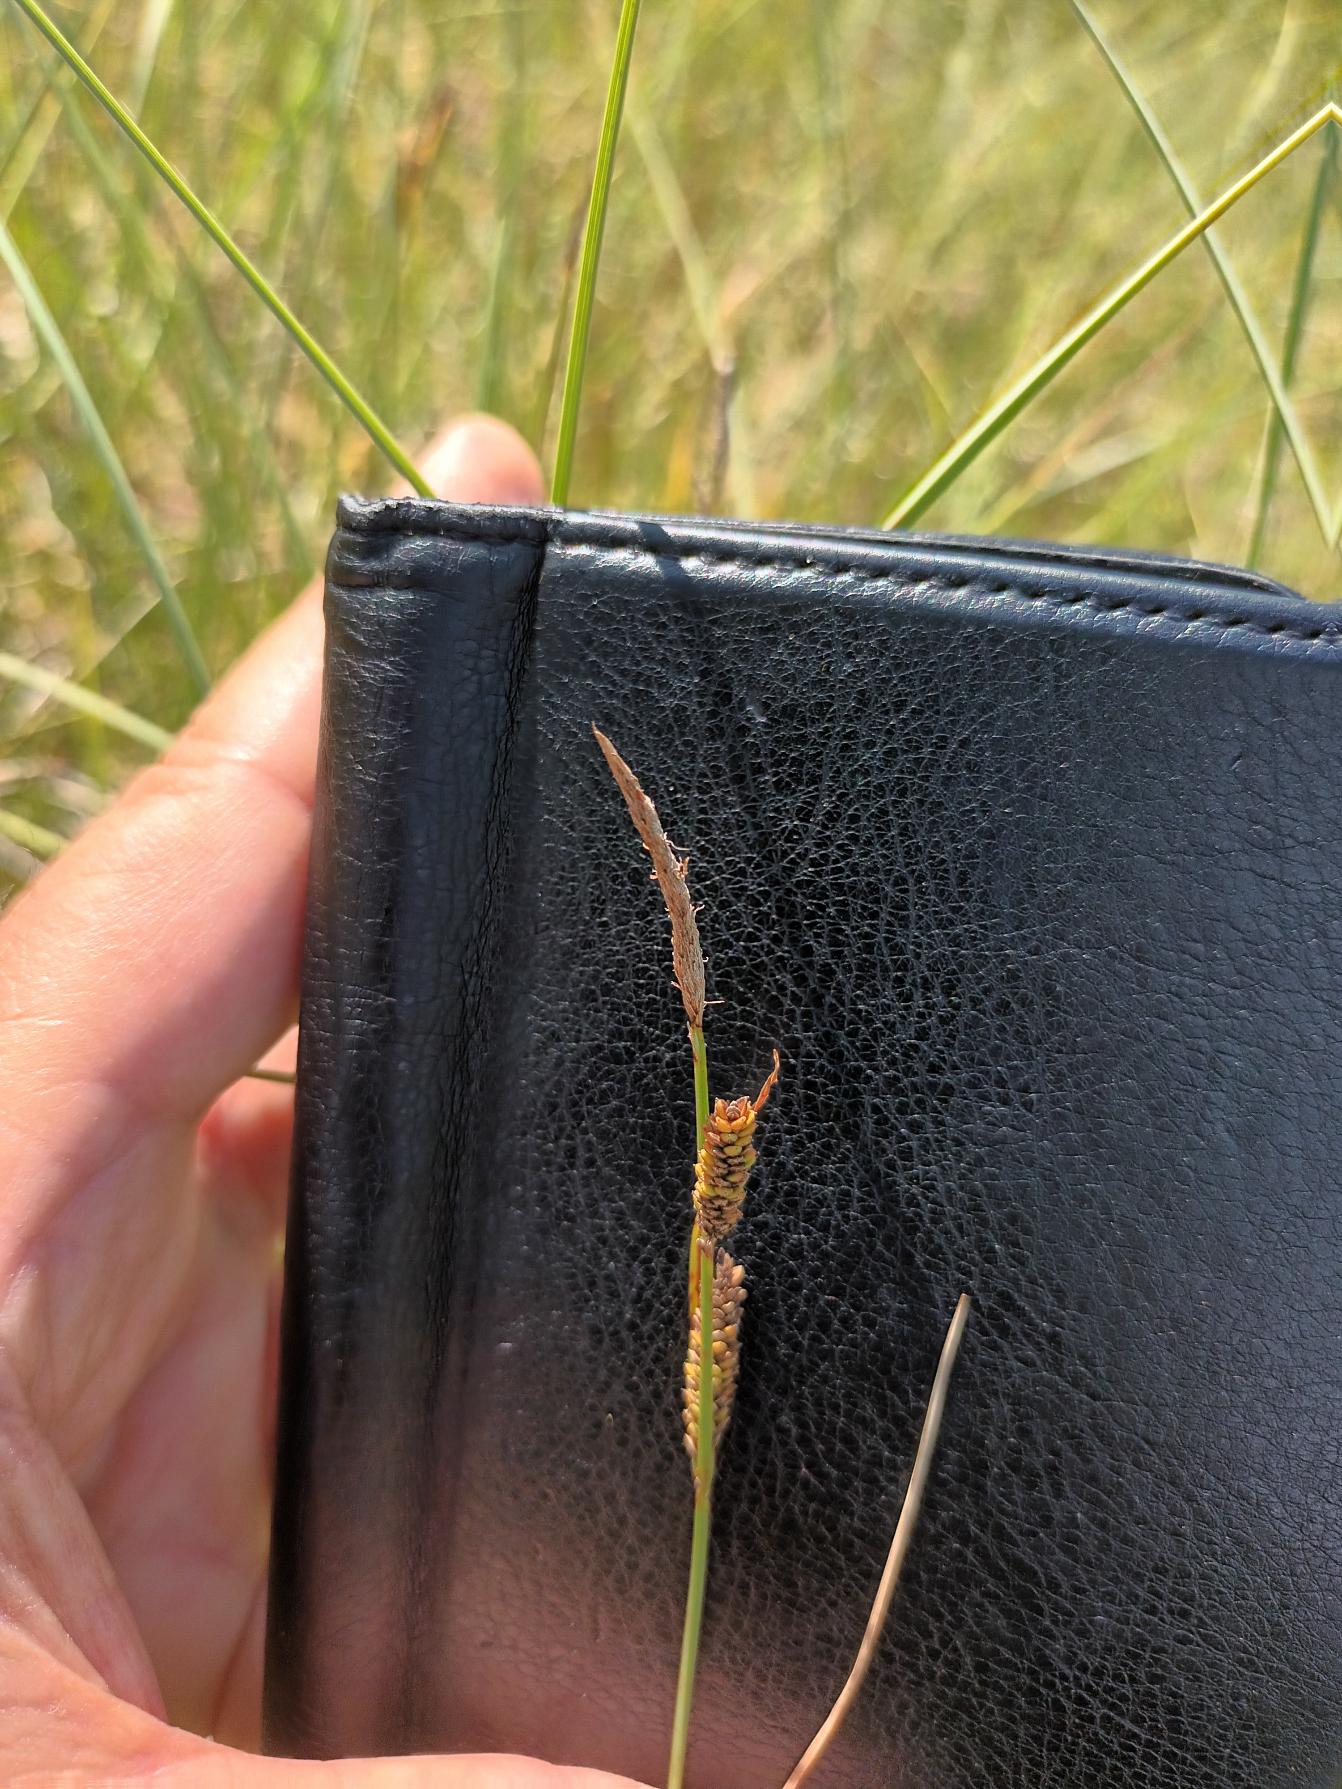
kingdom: Plantae
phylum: Tracheophyta
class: Liliopsida
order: Poales
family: Cyperaceae
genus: Carex
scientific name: Carex nigra
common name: Almindelig star
